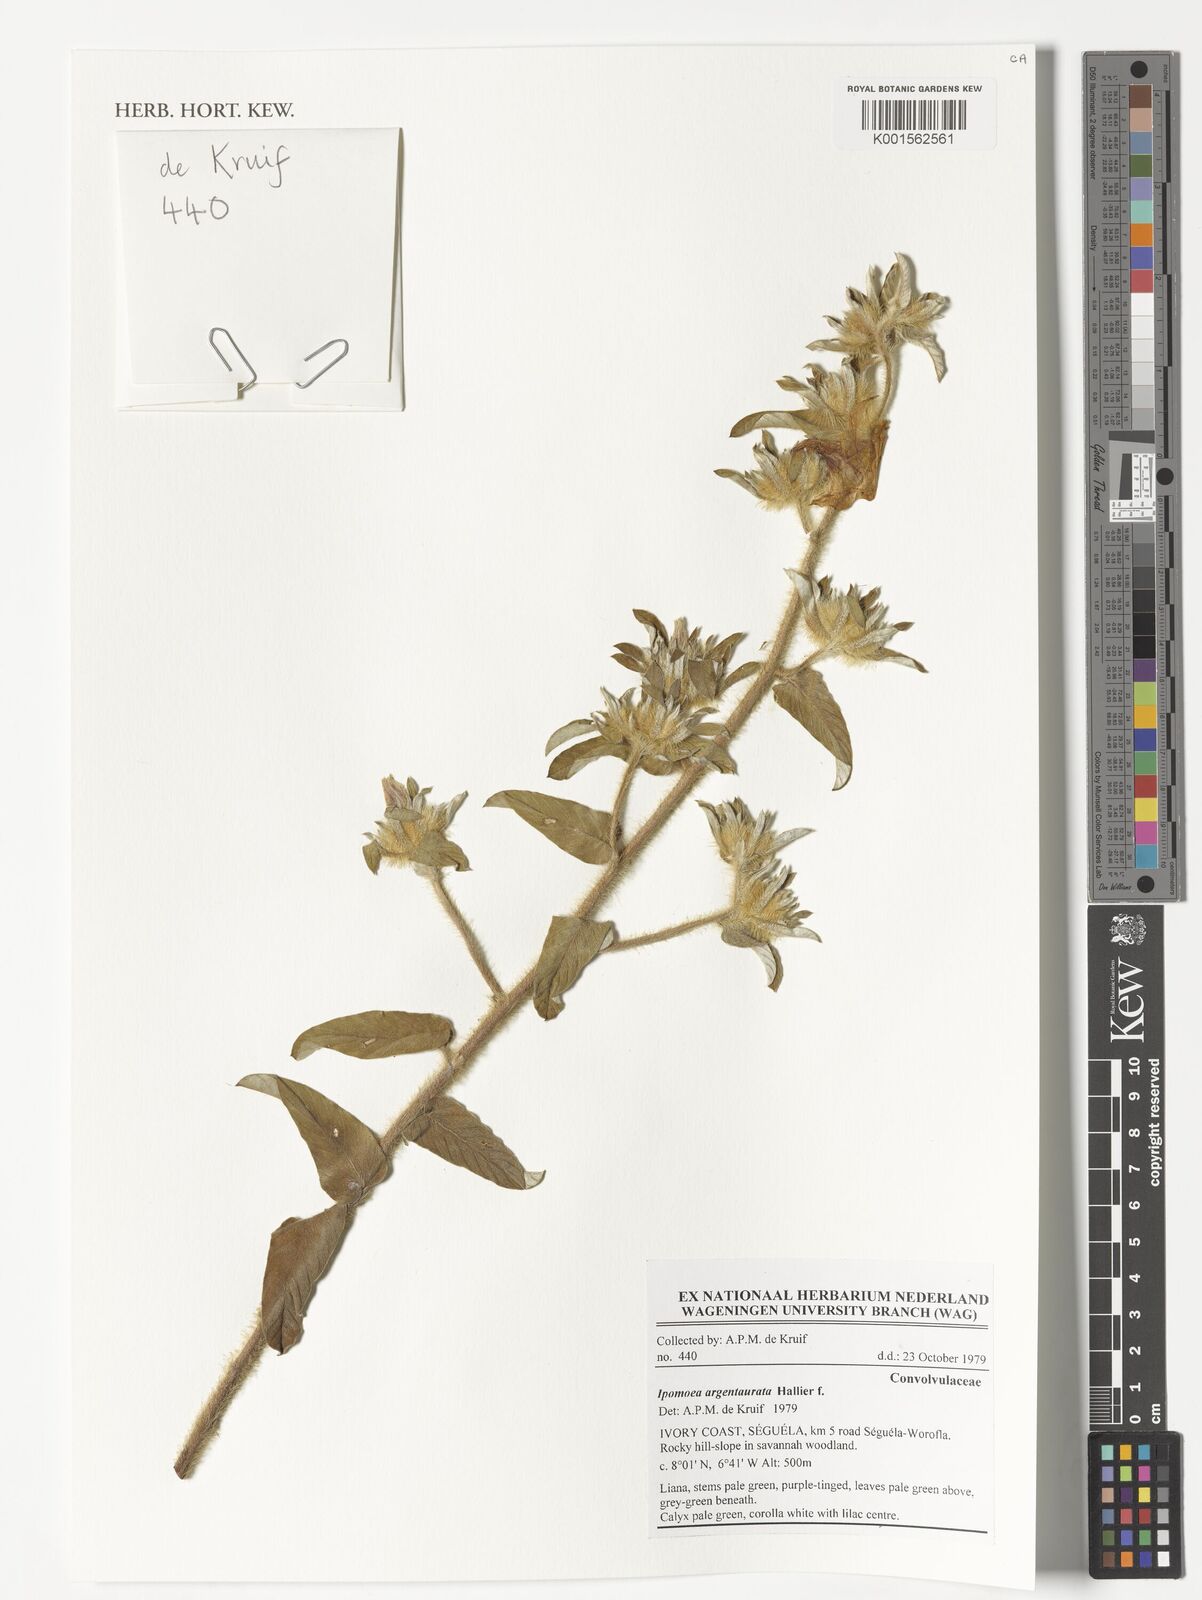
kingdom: Plantae
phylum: Tracheophyta
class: Magnoliopsida
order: Solanales
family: Convolvulaceae
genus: Ipomoea
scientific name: Ipomoea argentaurata
